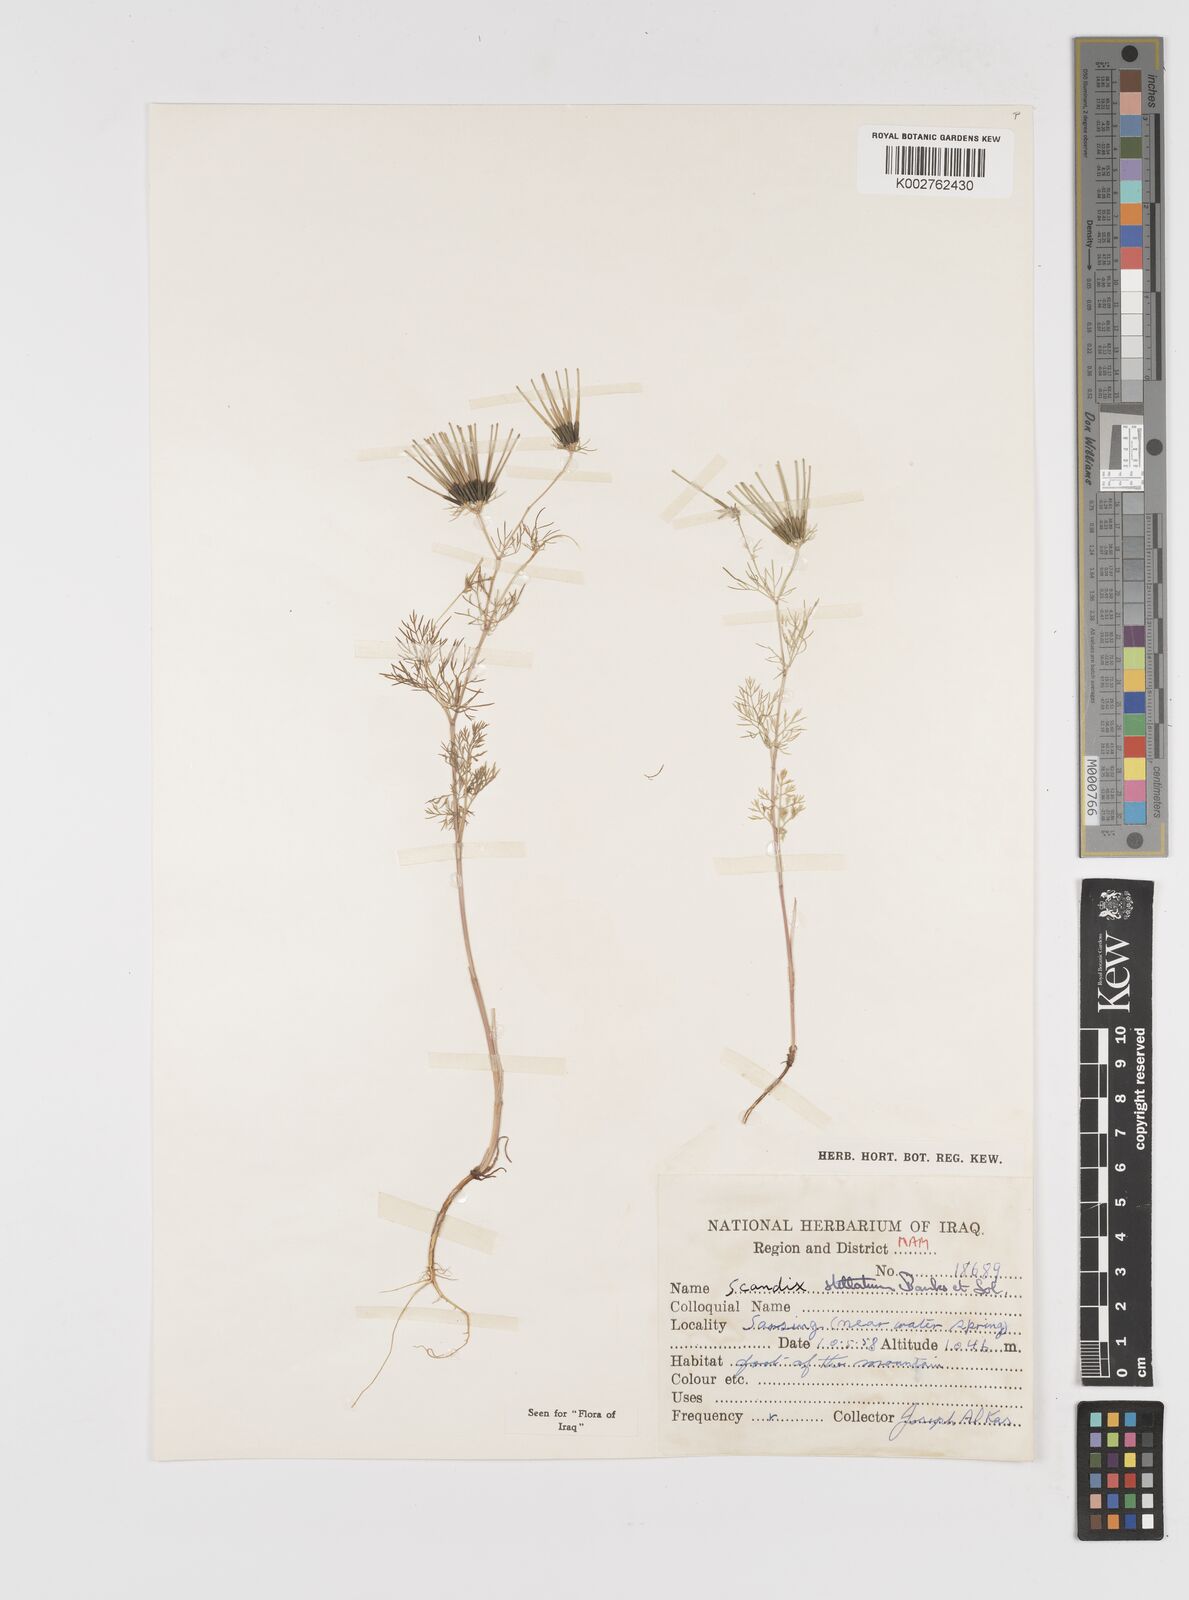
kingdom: Plantae
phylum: Tracheophyta
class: Magnoliopsida
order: Apiales
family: Apiaceae
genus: Scandix
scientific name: Scandix stellata
